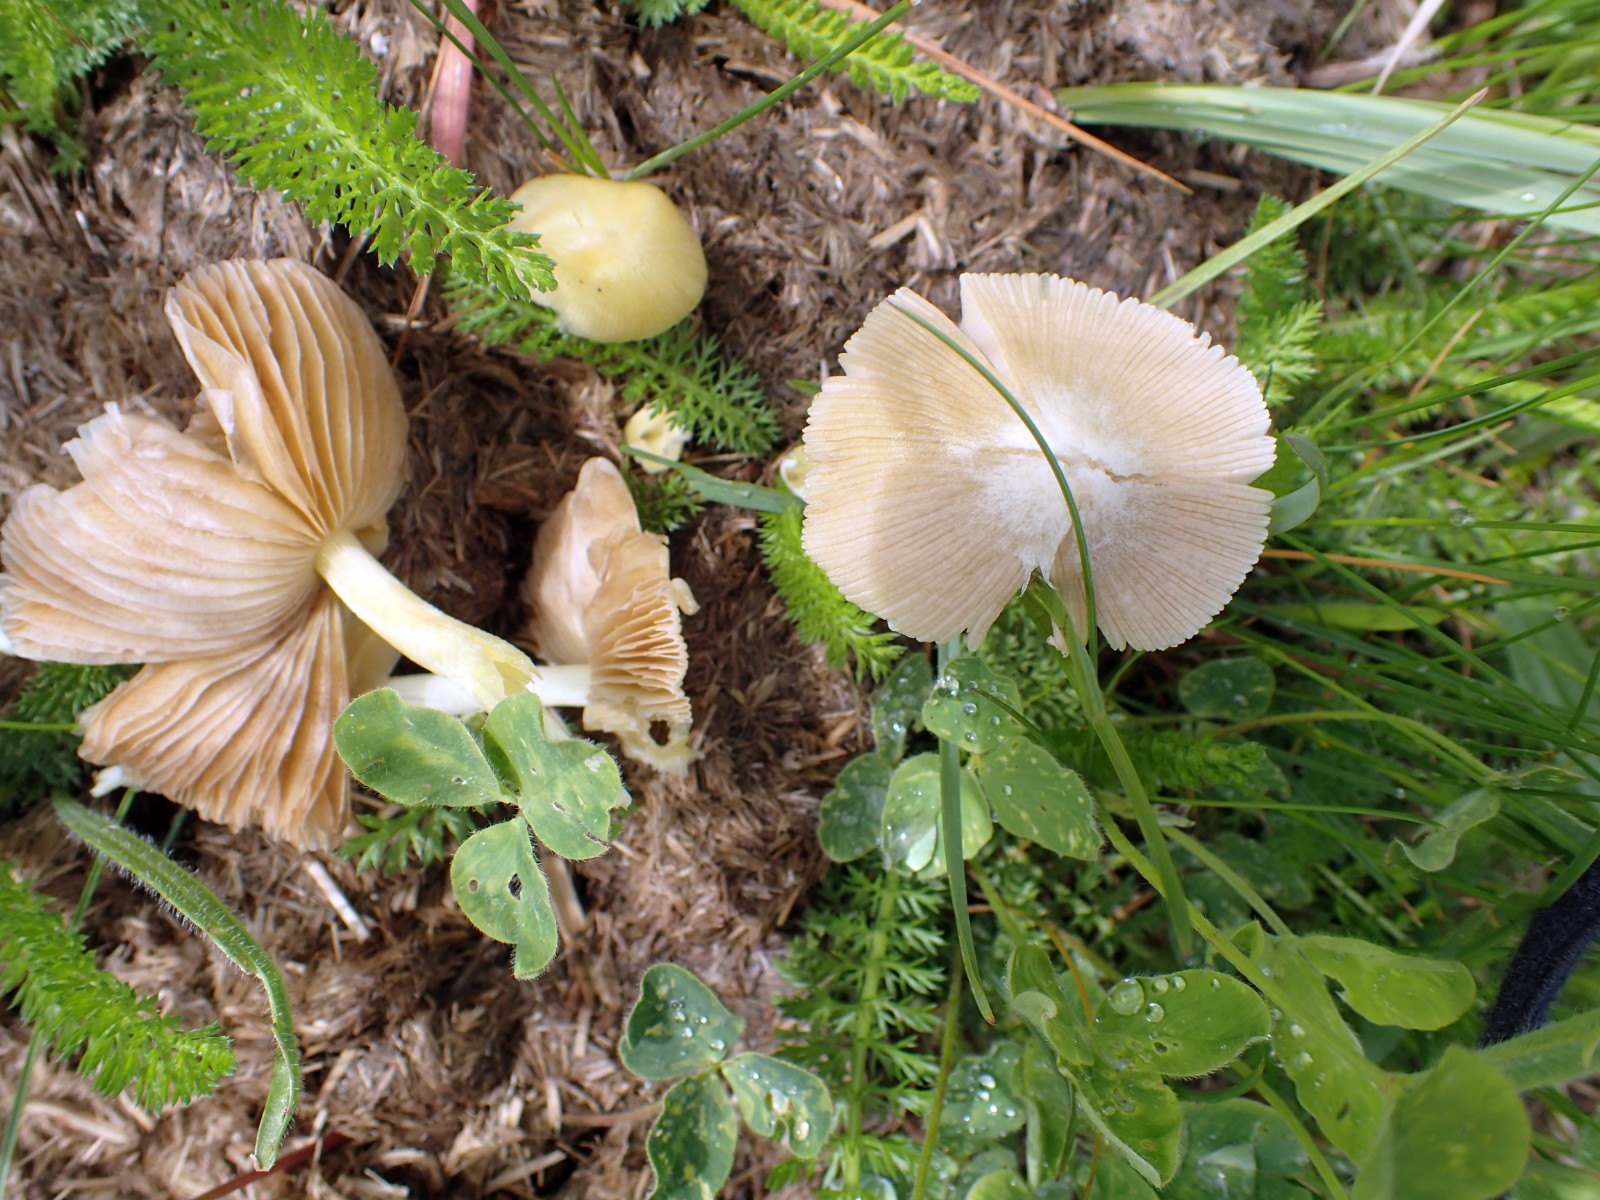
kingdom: Fungi
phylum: Basidiomycota
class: Agaricomycetes
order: Agaricales
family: Bolbitiaceae
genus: Bolbitius
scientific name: Bolbitius titubans
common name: almindelig gulhat
